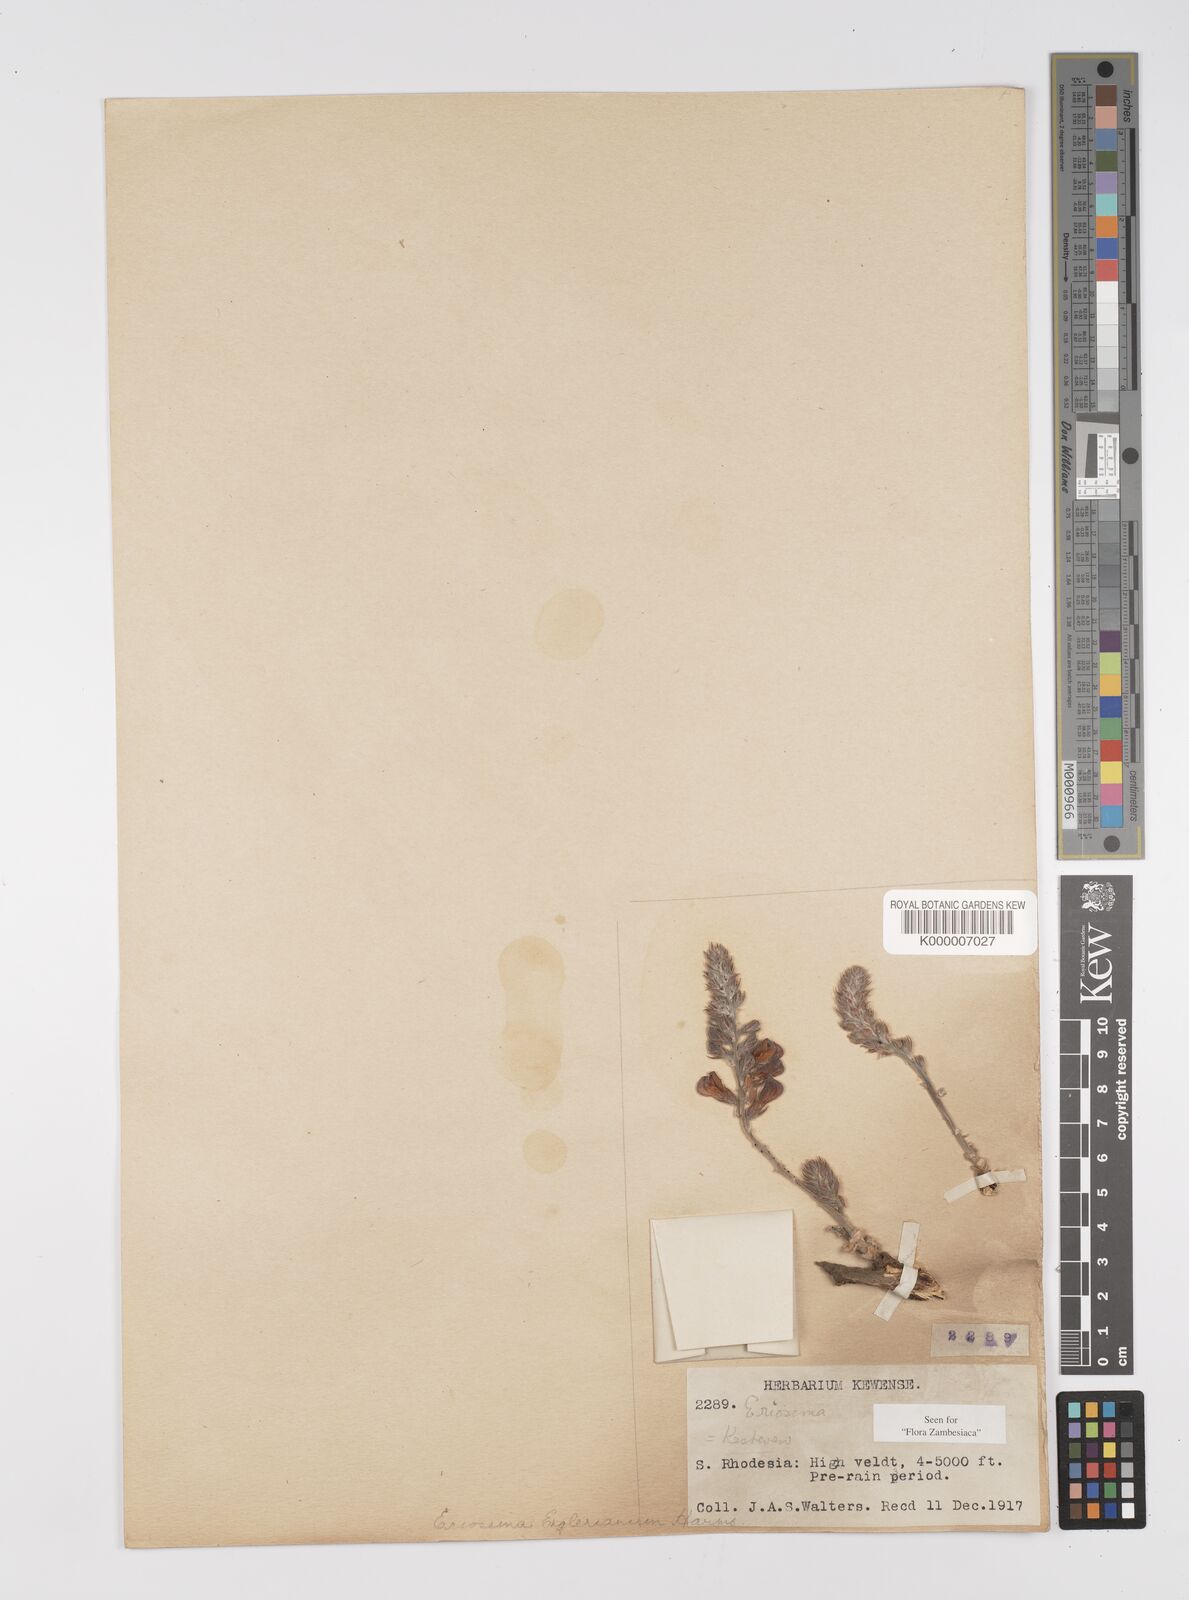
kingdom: Plantae
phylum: Tracheophyta
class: Magnoliopsida
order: Fabales
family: Fabaceae
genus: Eriosema
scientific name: Eriosema englerianum
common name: Blue bush
